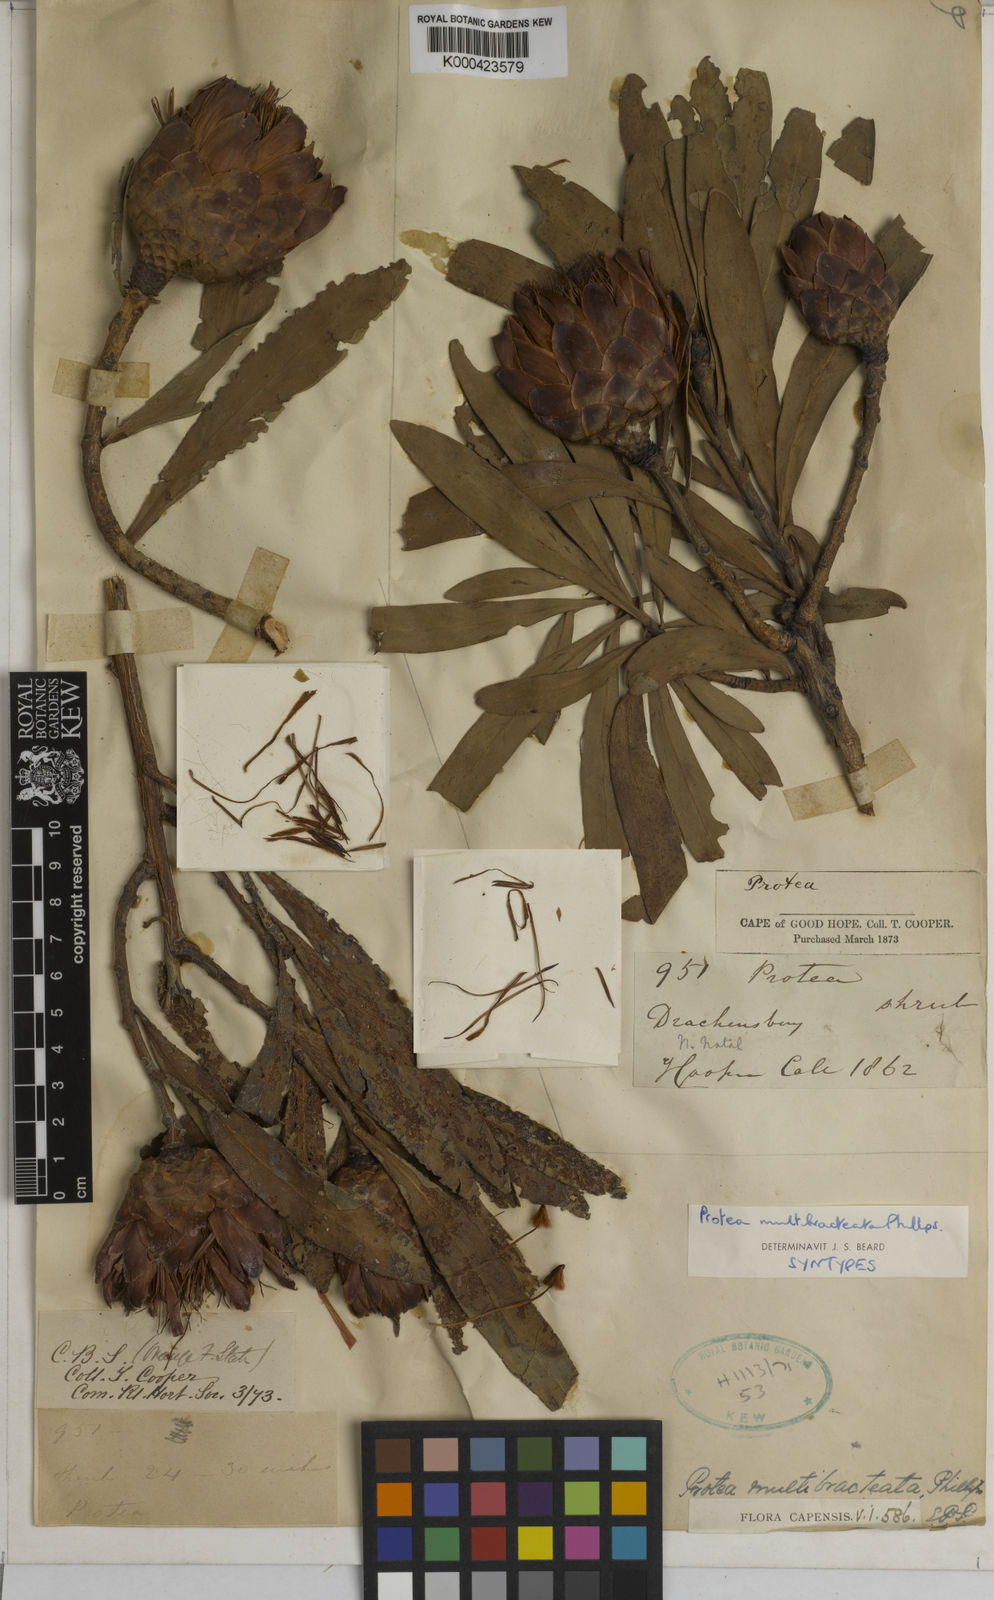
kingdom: Plantae
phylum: Tracheophyta
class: Magnoliopsida
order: Proteales
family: Proteaceae
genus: Protea
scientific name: Protea caffra
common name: Common sugarbush
